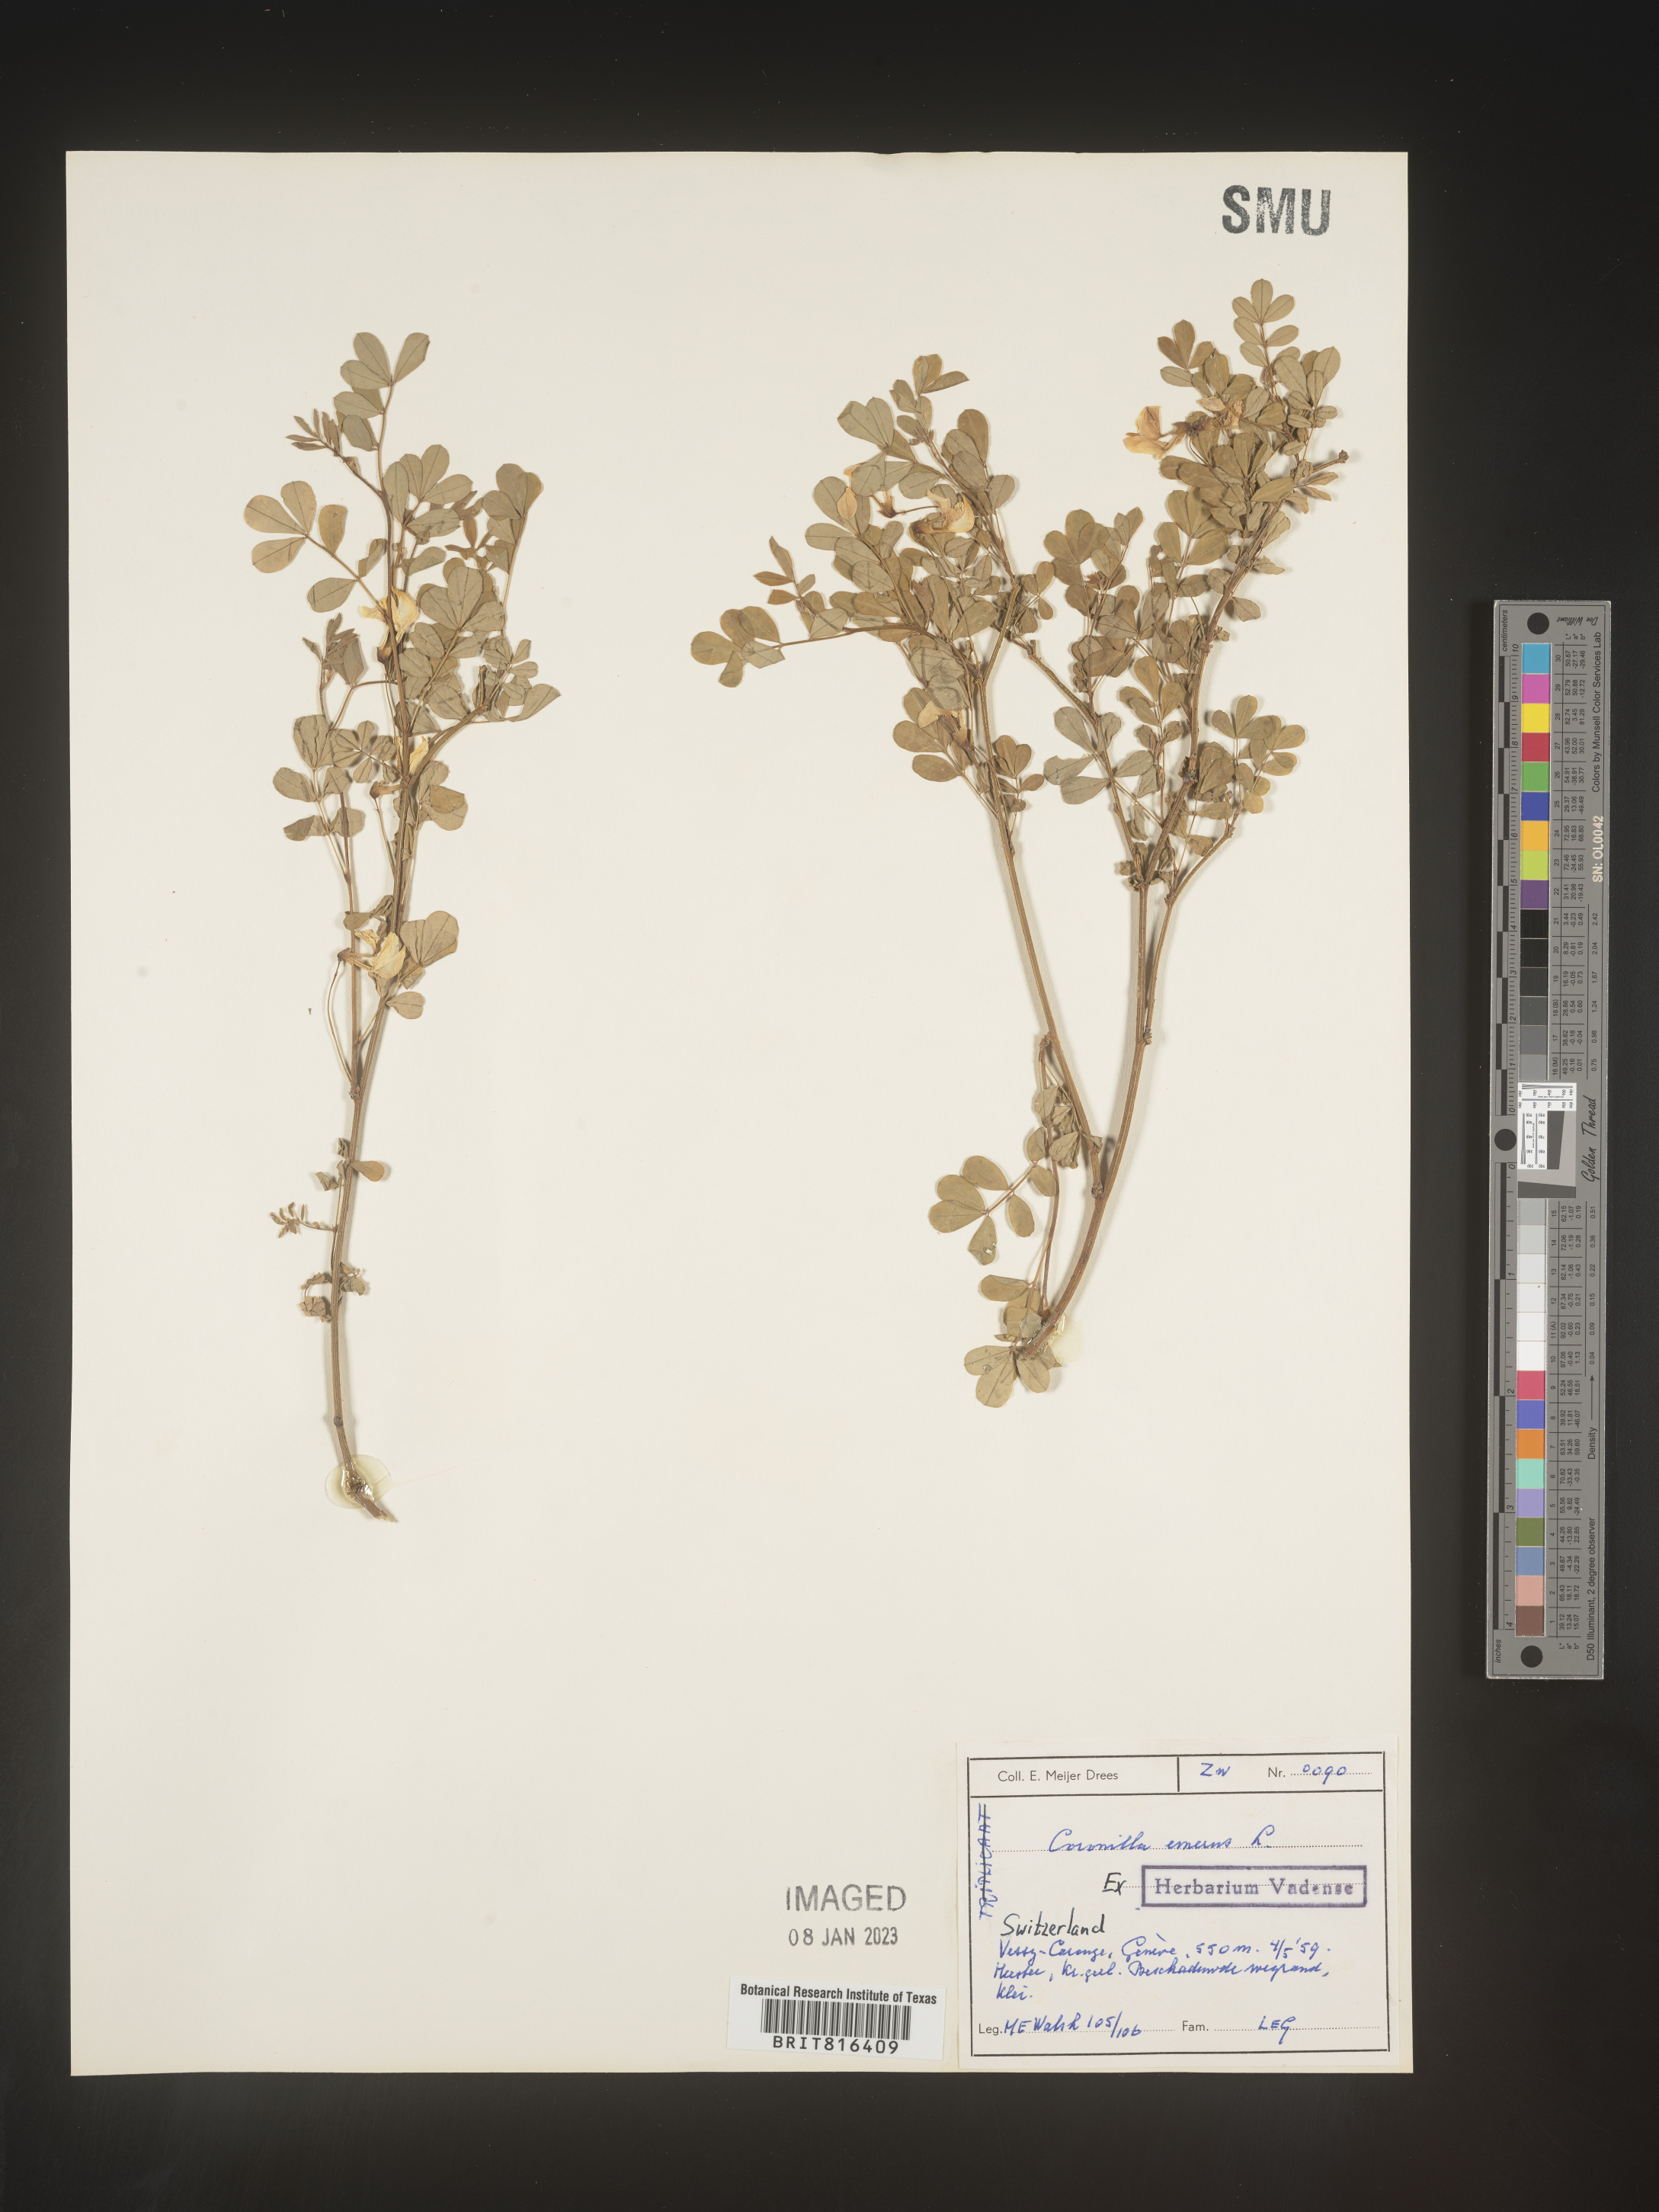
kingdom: Plantae
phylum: Tracheophyta
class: Magnoliopsida
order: Fabales
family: Fabaceae
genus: Coronilla
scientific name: Coronilla
